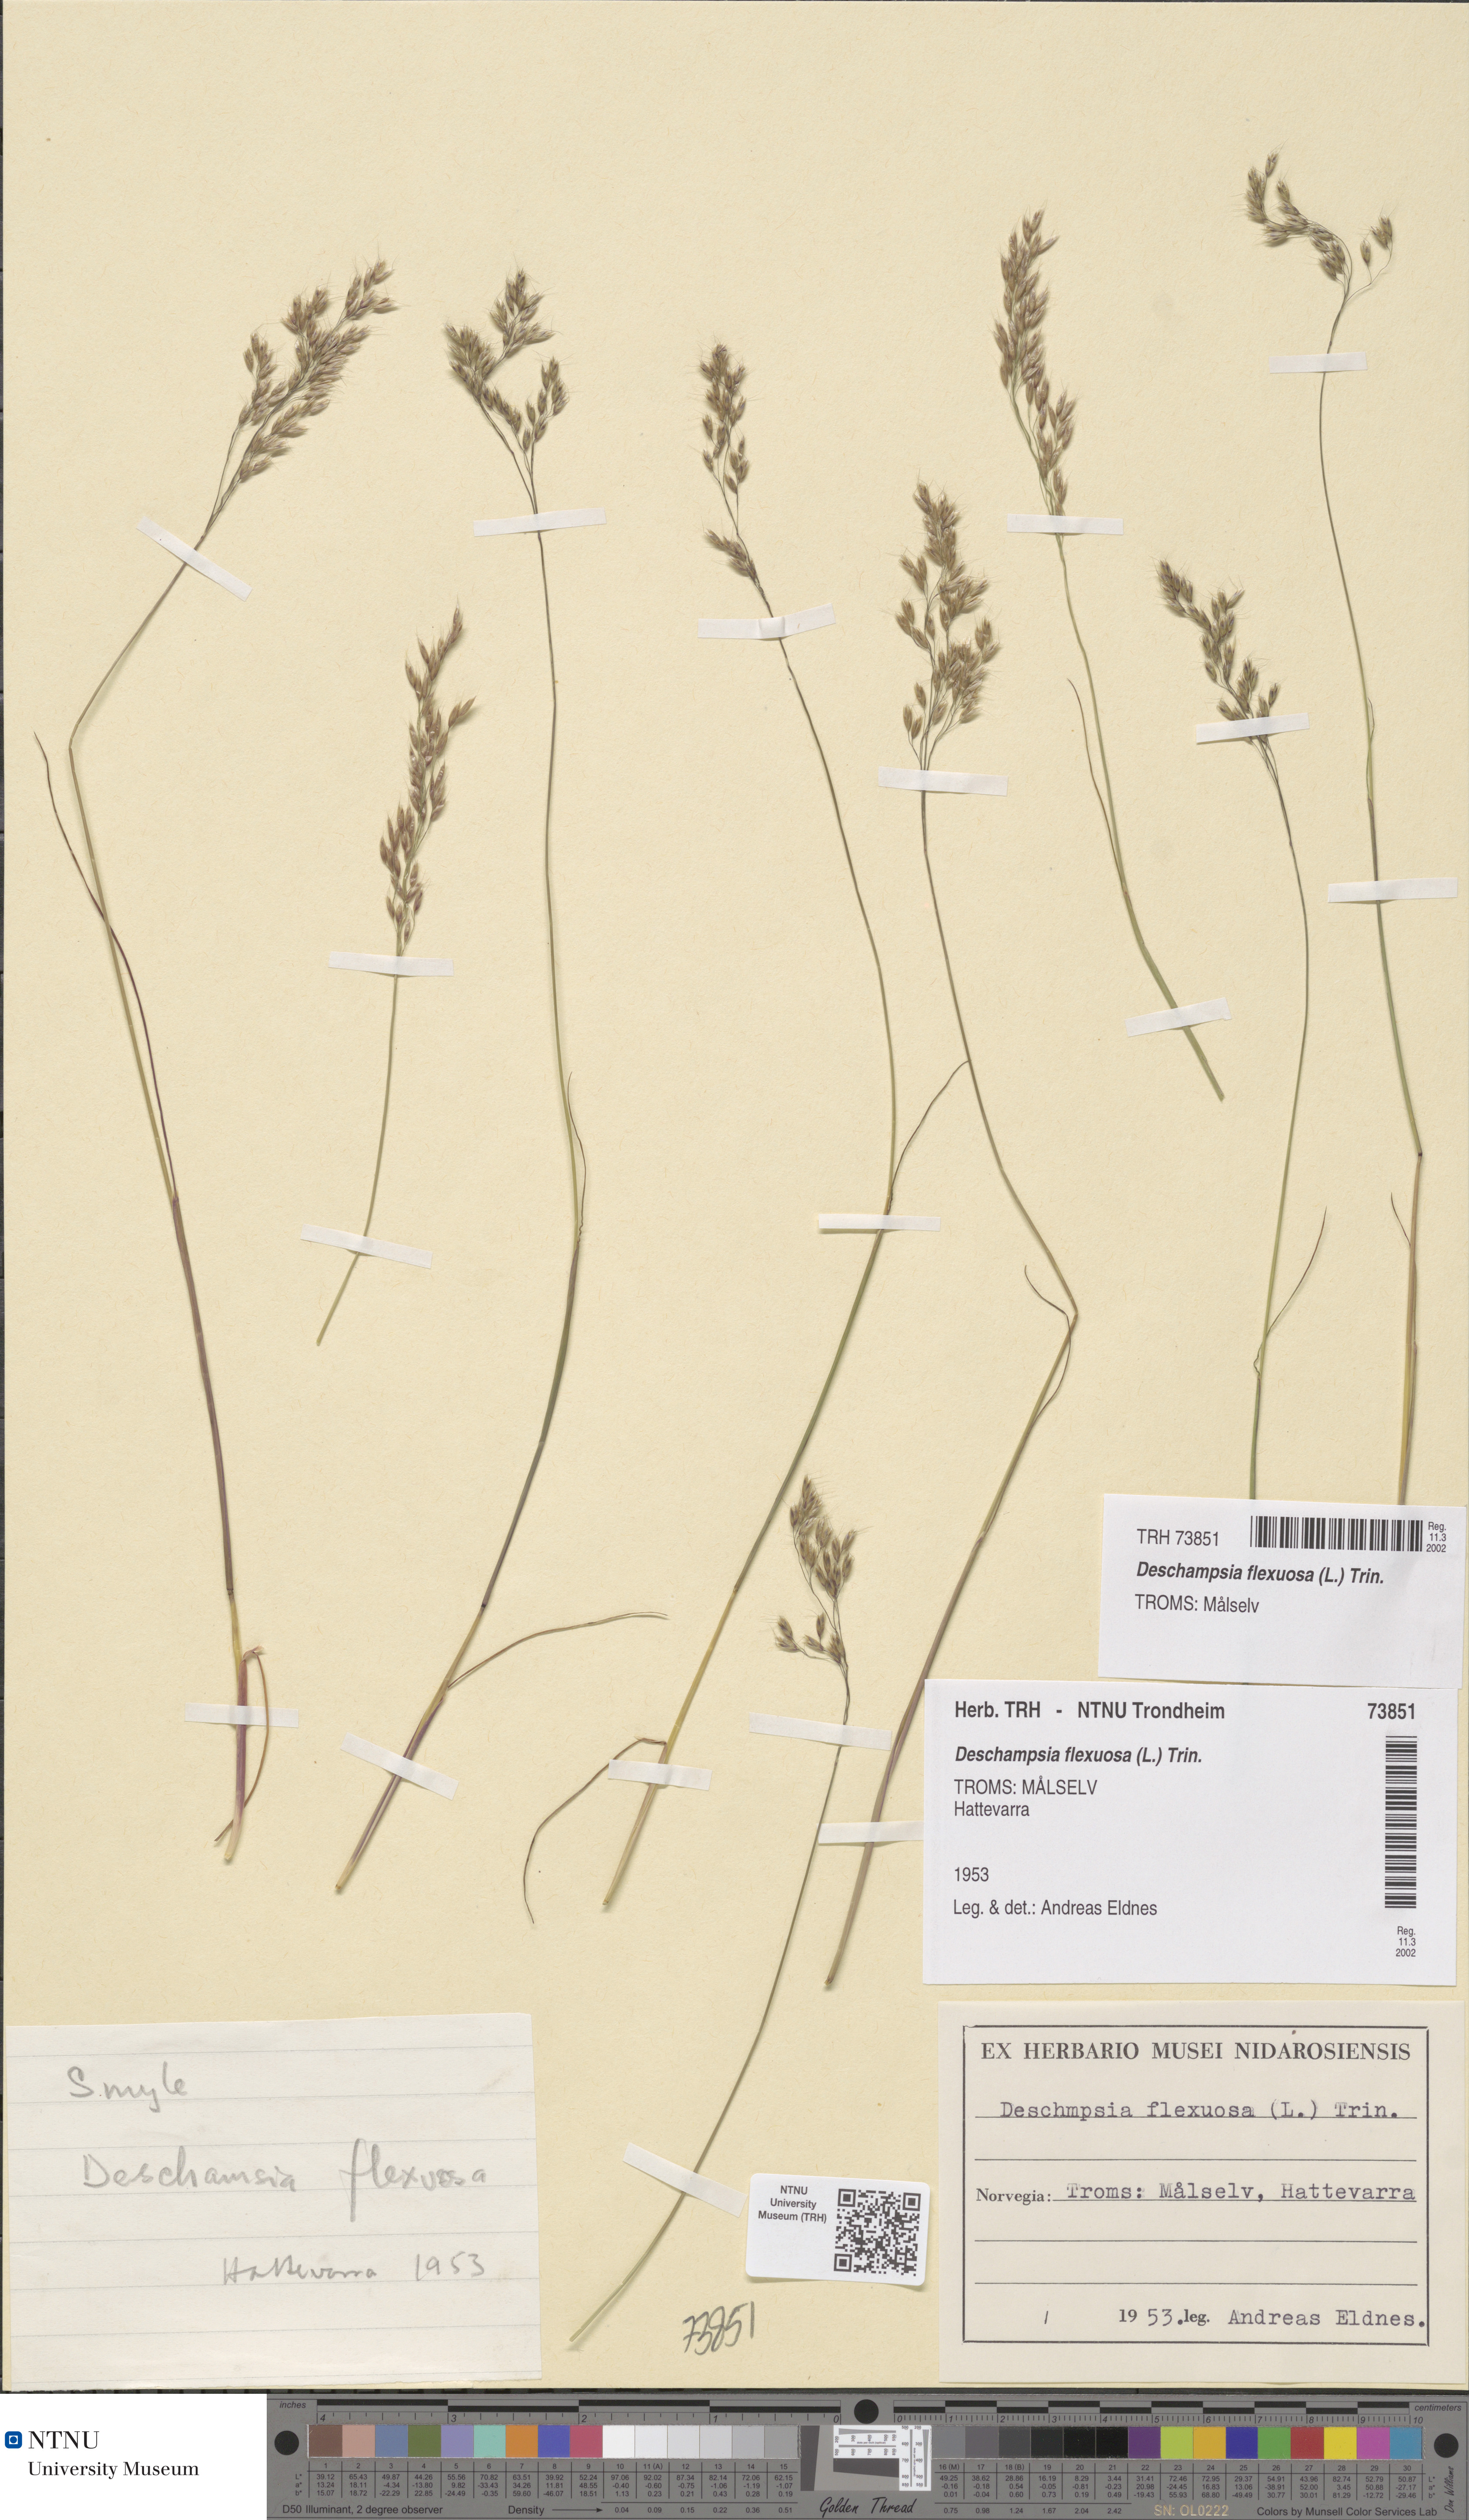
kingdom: Plantae
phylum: Tracheophyta
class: Liliopsida
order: Poales
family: Poaceae
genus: Avenella
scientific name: Avenella flexuosa
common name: Wavy hairgrass
